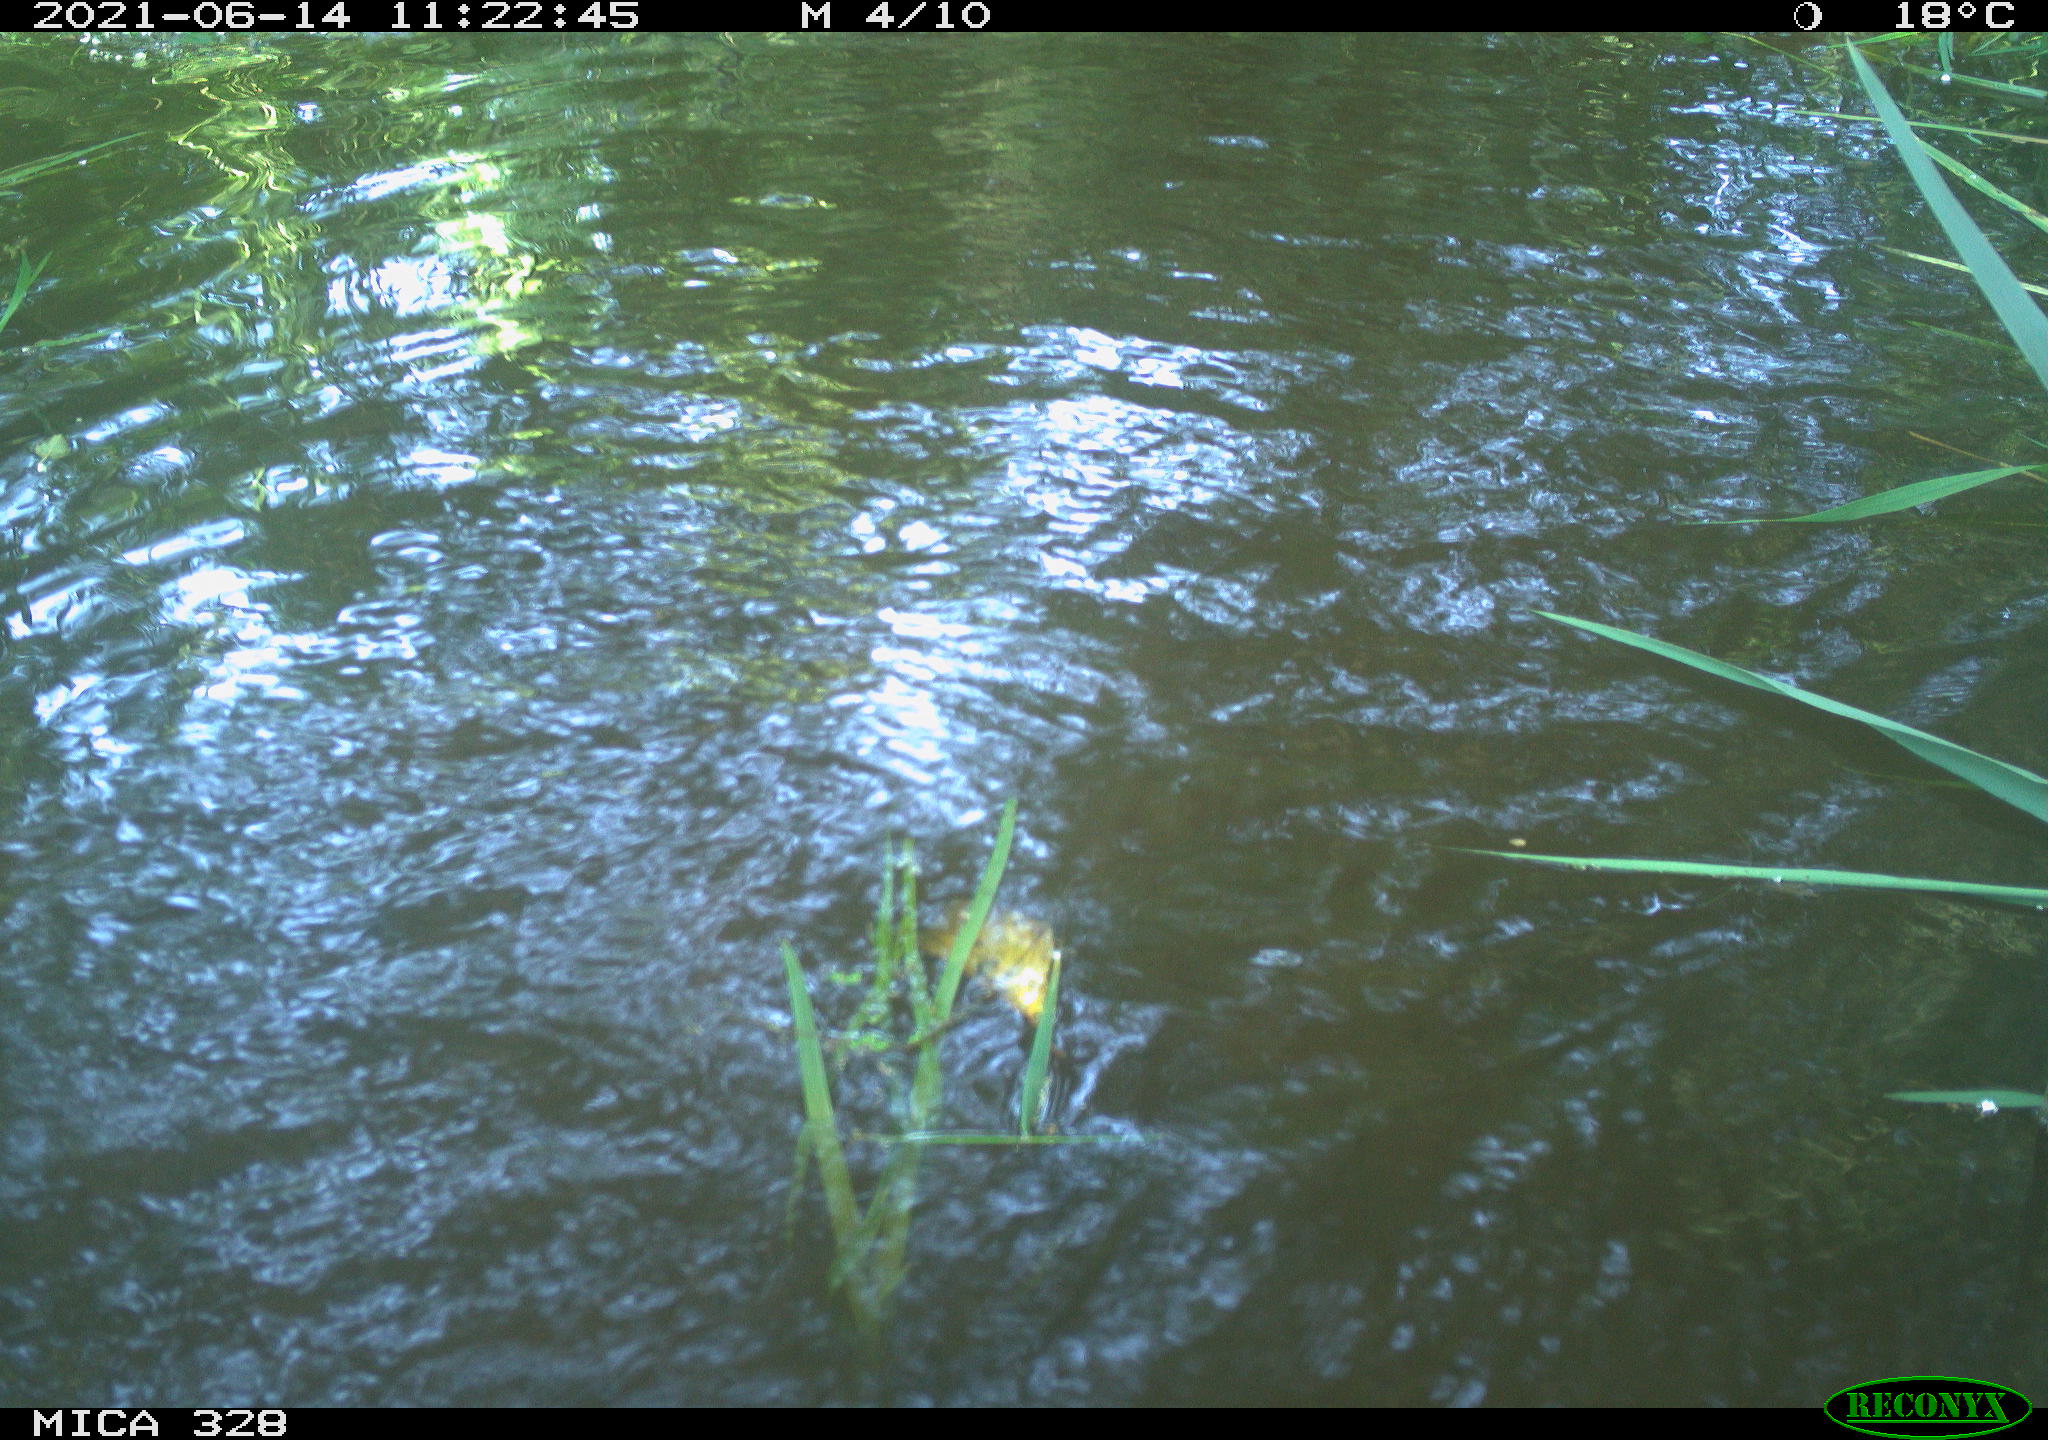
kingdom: Animalia
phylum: Chordata
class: Mammalia
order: Rodentia
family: Cricetidae
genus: Ondatra
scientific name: Ondatra zibethicus
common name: Muskrat
